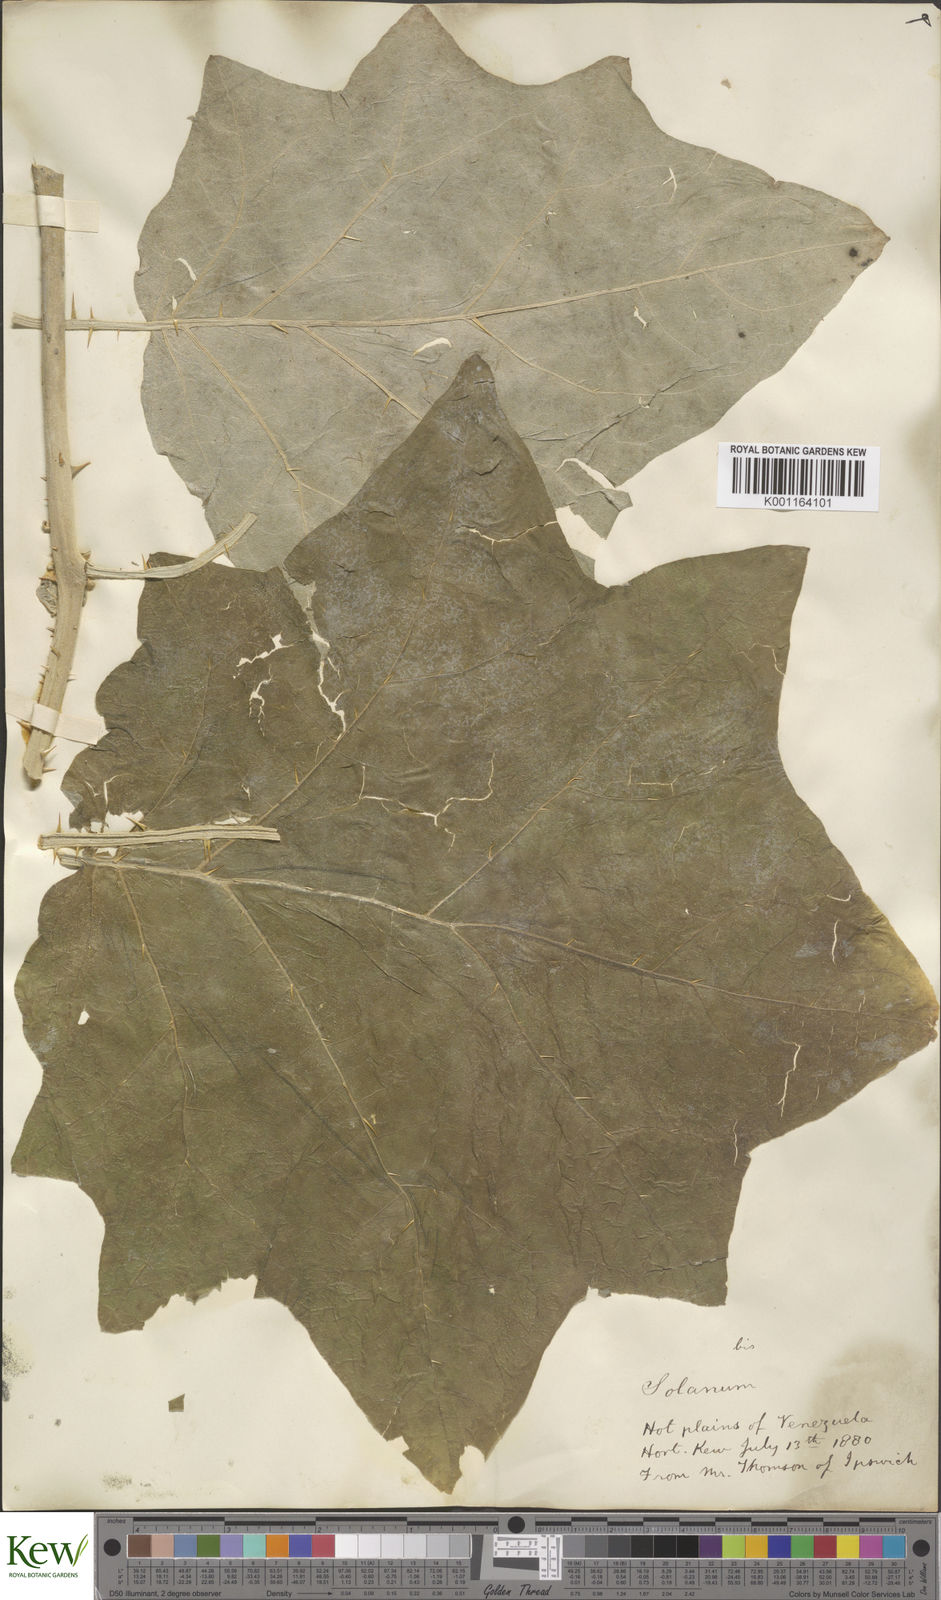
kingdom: Plantae
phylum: Tracheophyta
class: Magnoliopsida
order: Solanales
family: Solanaceae
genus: Solanum
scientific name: Solanum hirtum
